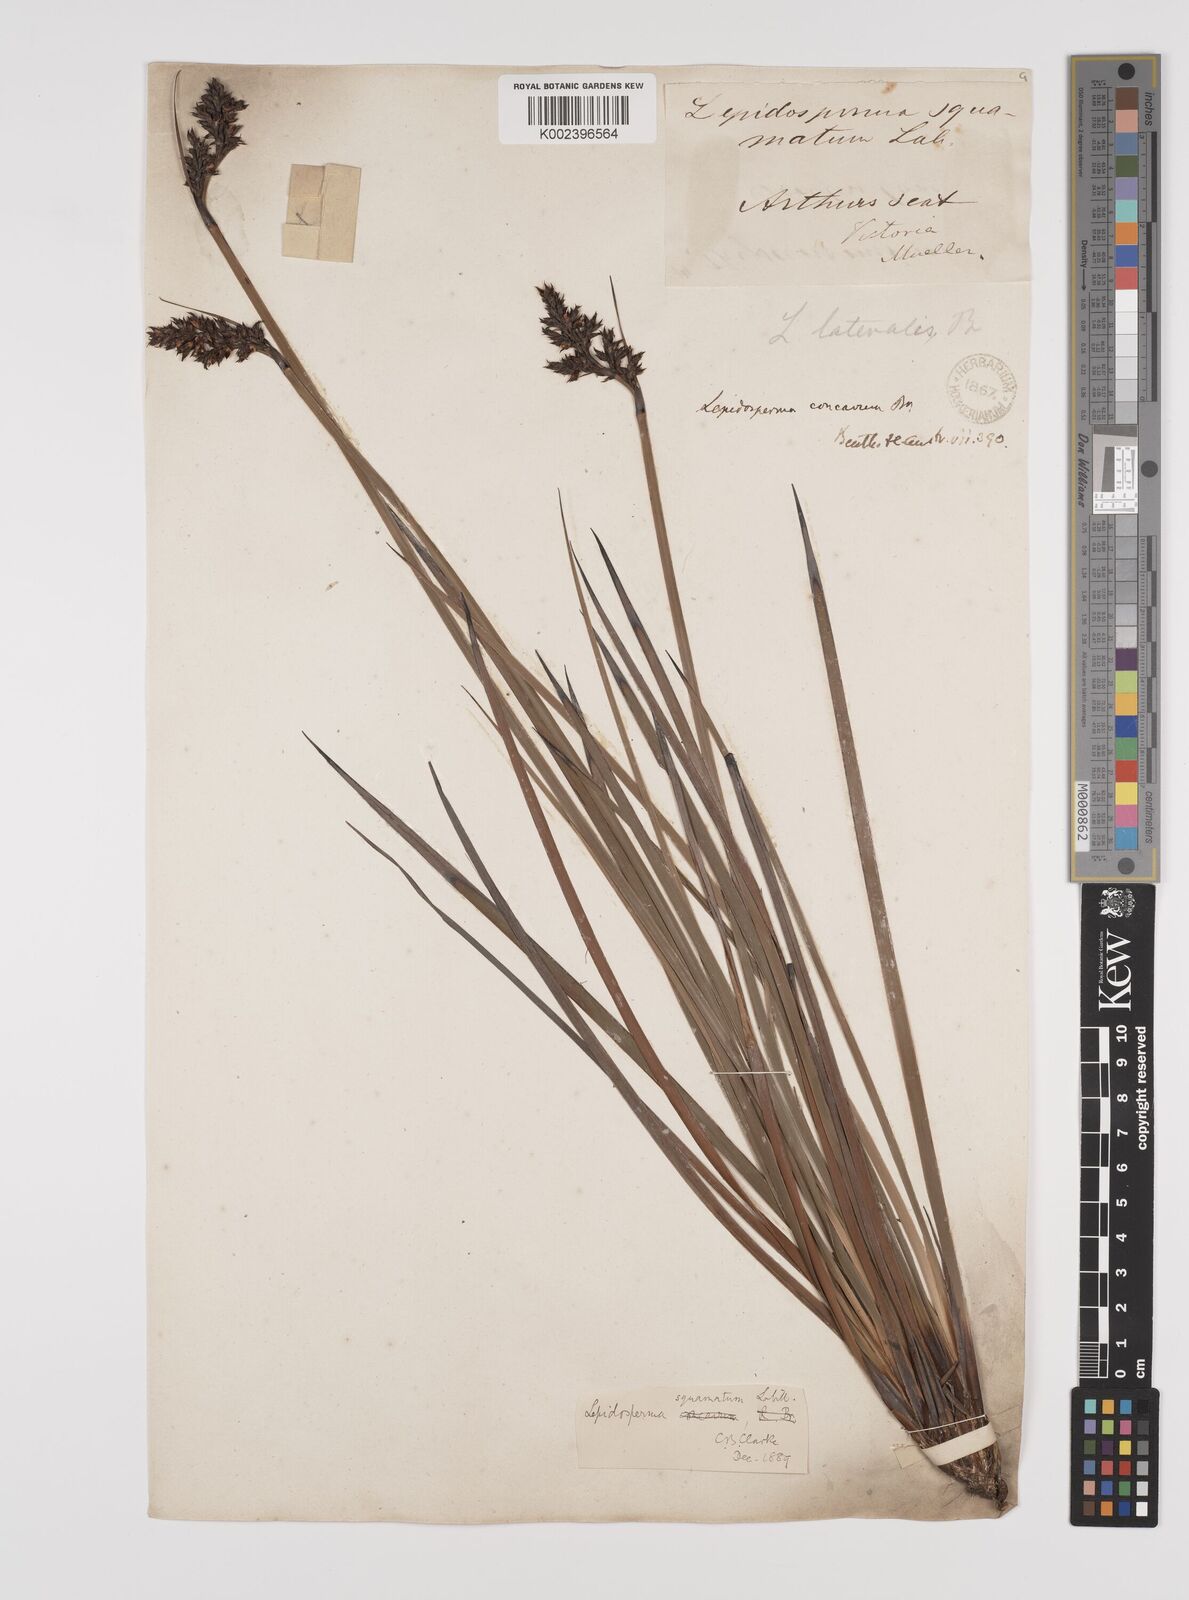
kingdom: Plantae
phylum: Tracheophyta
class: Liliopsida
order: Poales
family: Cyperaceae
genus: Lepidosperma
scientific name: Lepidosperma concavum
